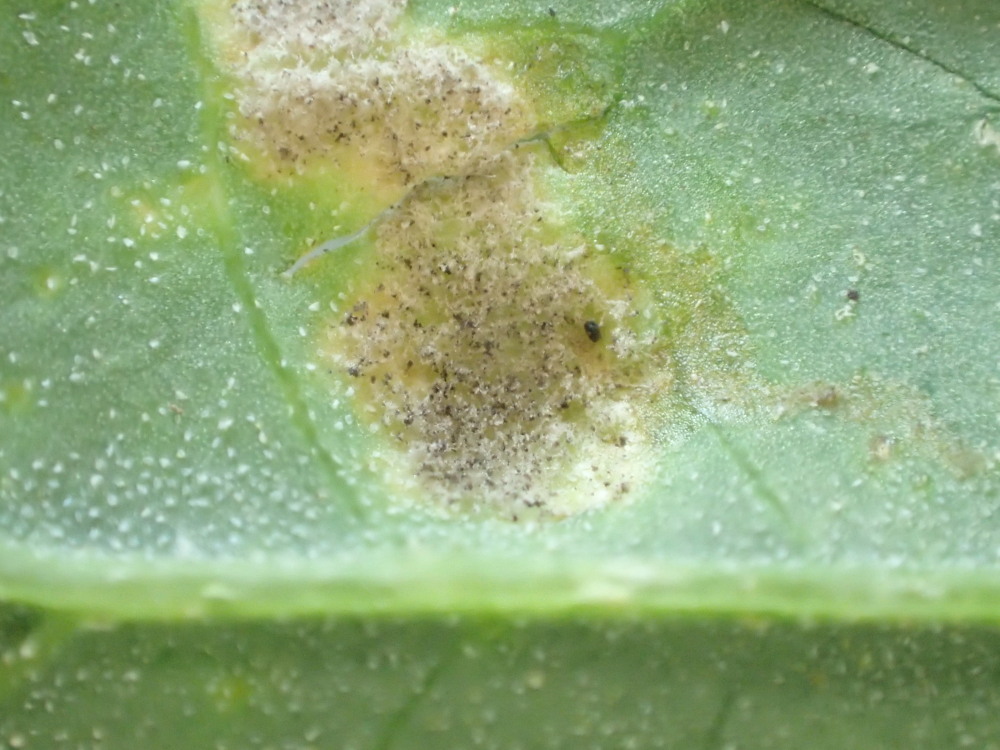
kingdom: Chromista
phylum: Oomycota
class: Peronosporea
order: Peronosporales
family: Peronosporaceae
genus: Peronospora
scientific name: Peronospora farinosa
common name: Beet downy mildew
